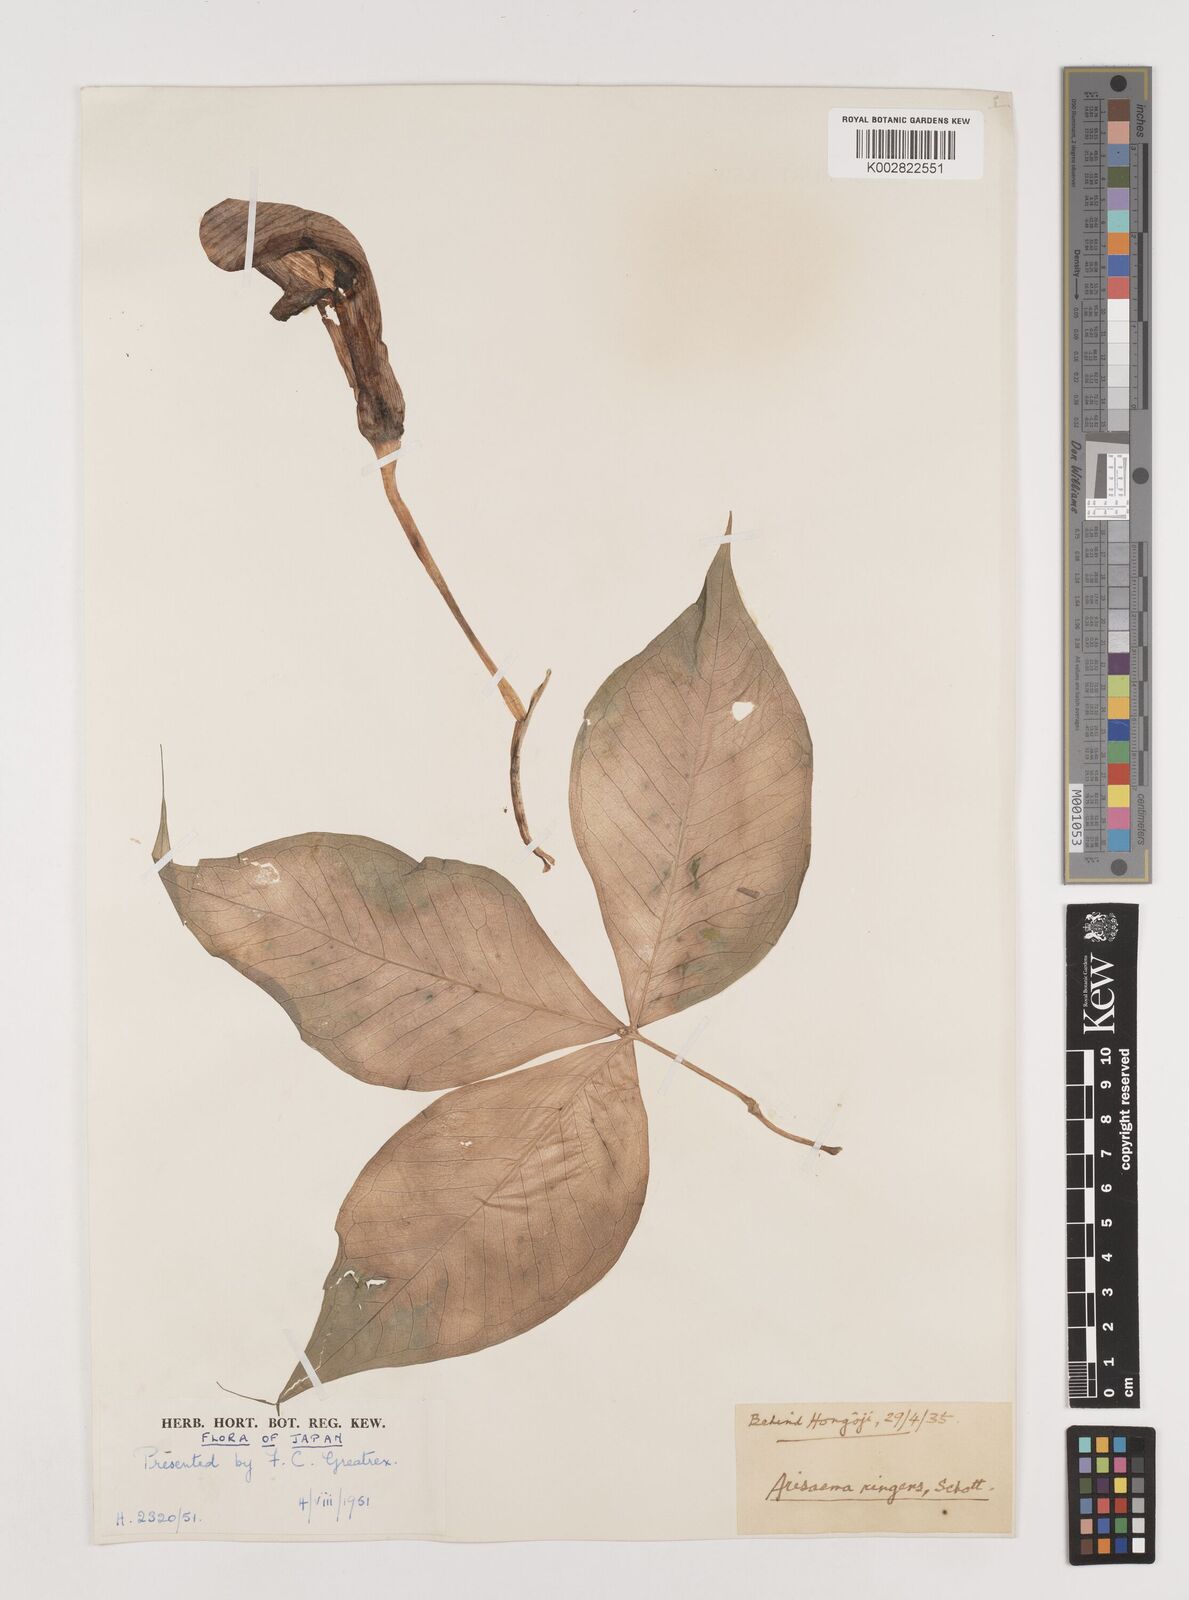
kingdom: Plantae
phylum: Tracheophyta
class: Liliopsida
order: Alismatales
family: Araceae
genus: Arisaema
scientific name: Arisaema ringens
